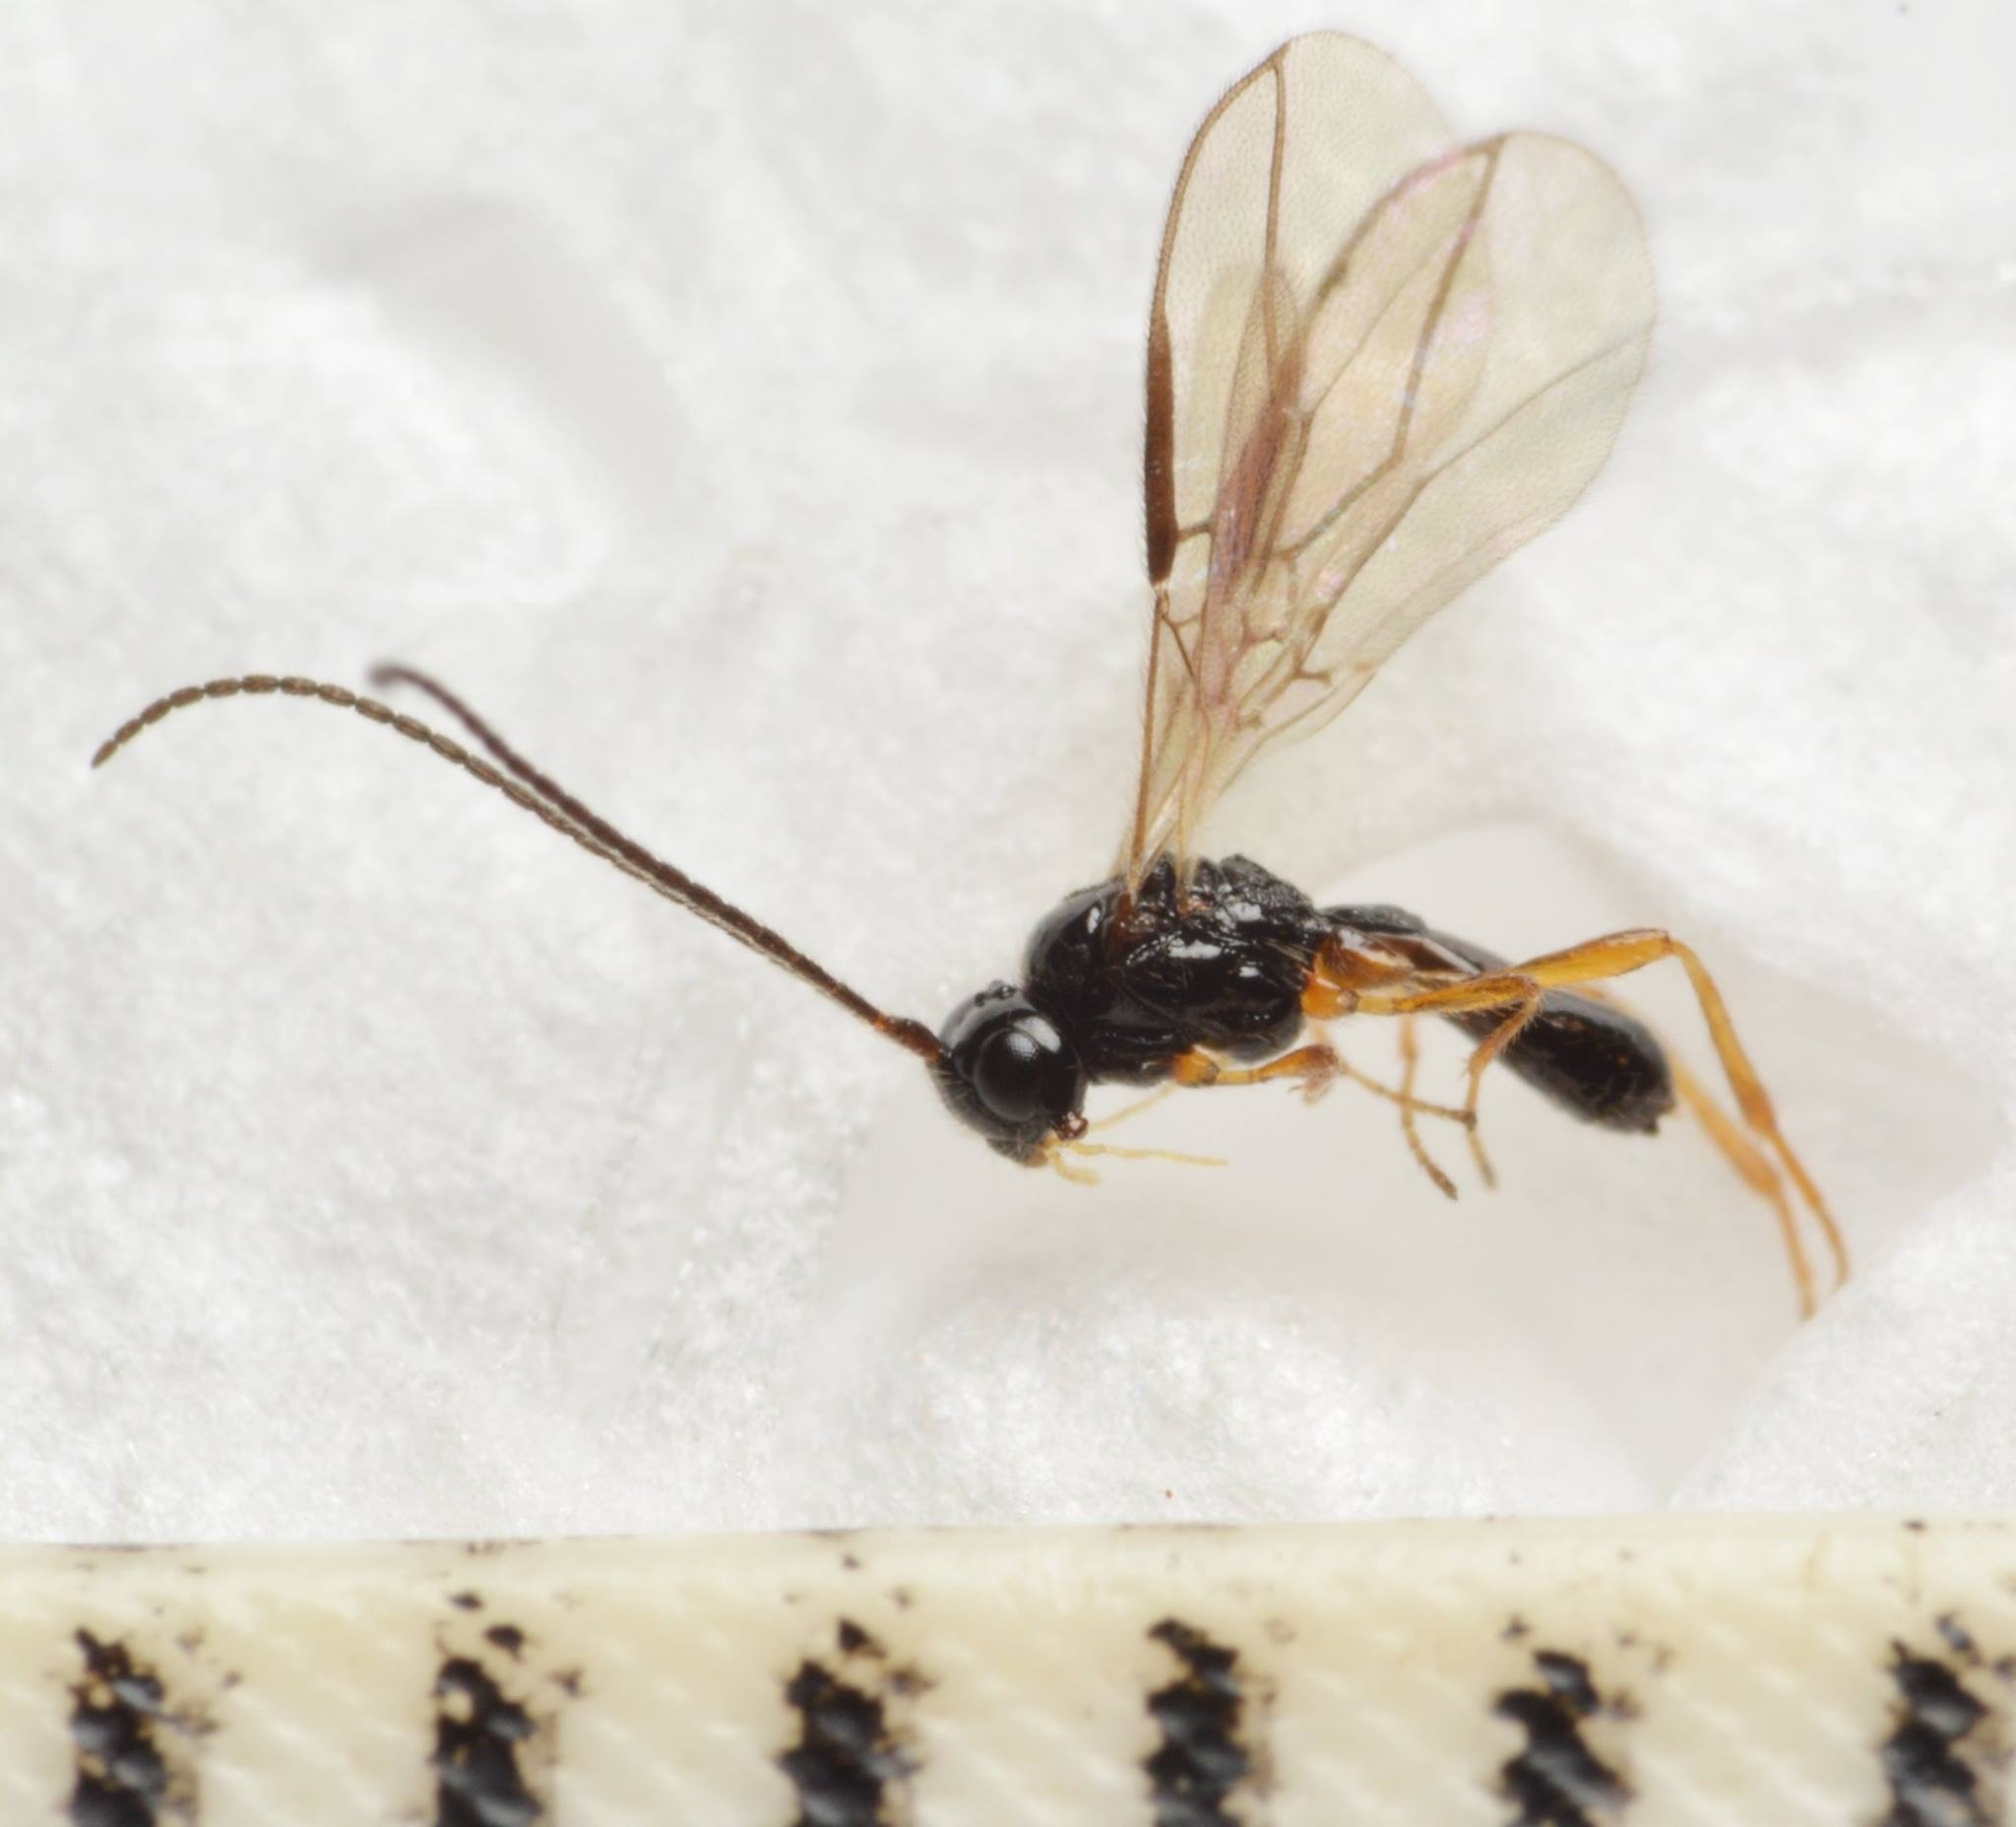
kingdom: Animalia
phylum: Arthropoda
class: Insecta
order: Hymenoptera
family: Braconidae
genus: Orthostigma
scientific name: Orthostigma pusillum
